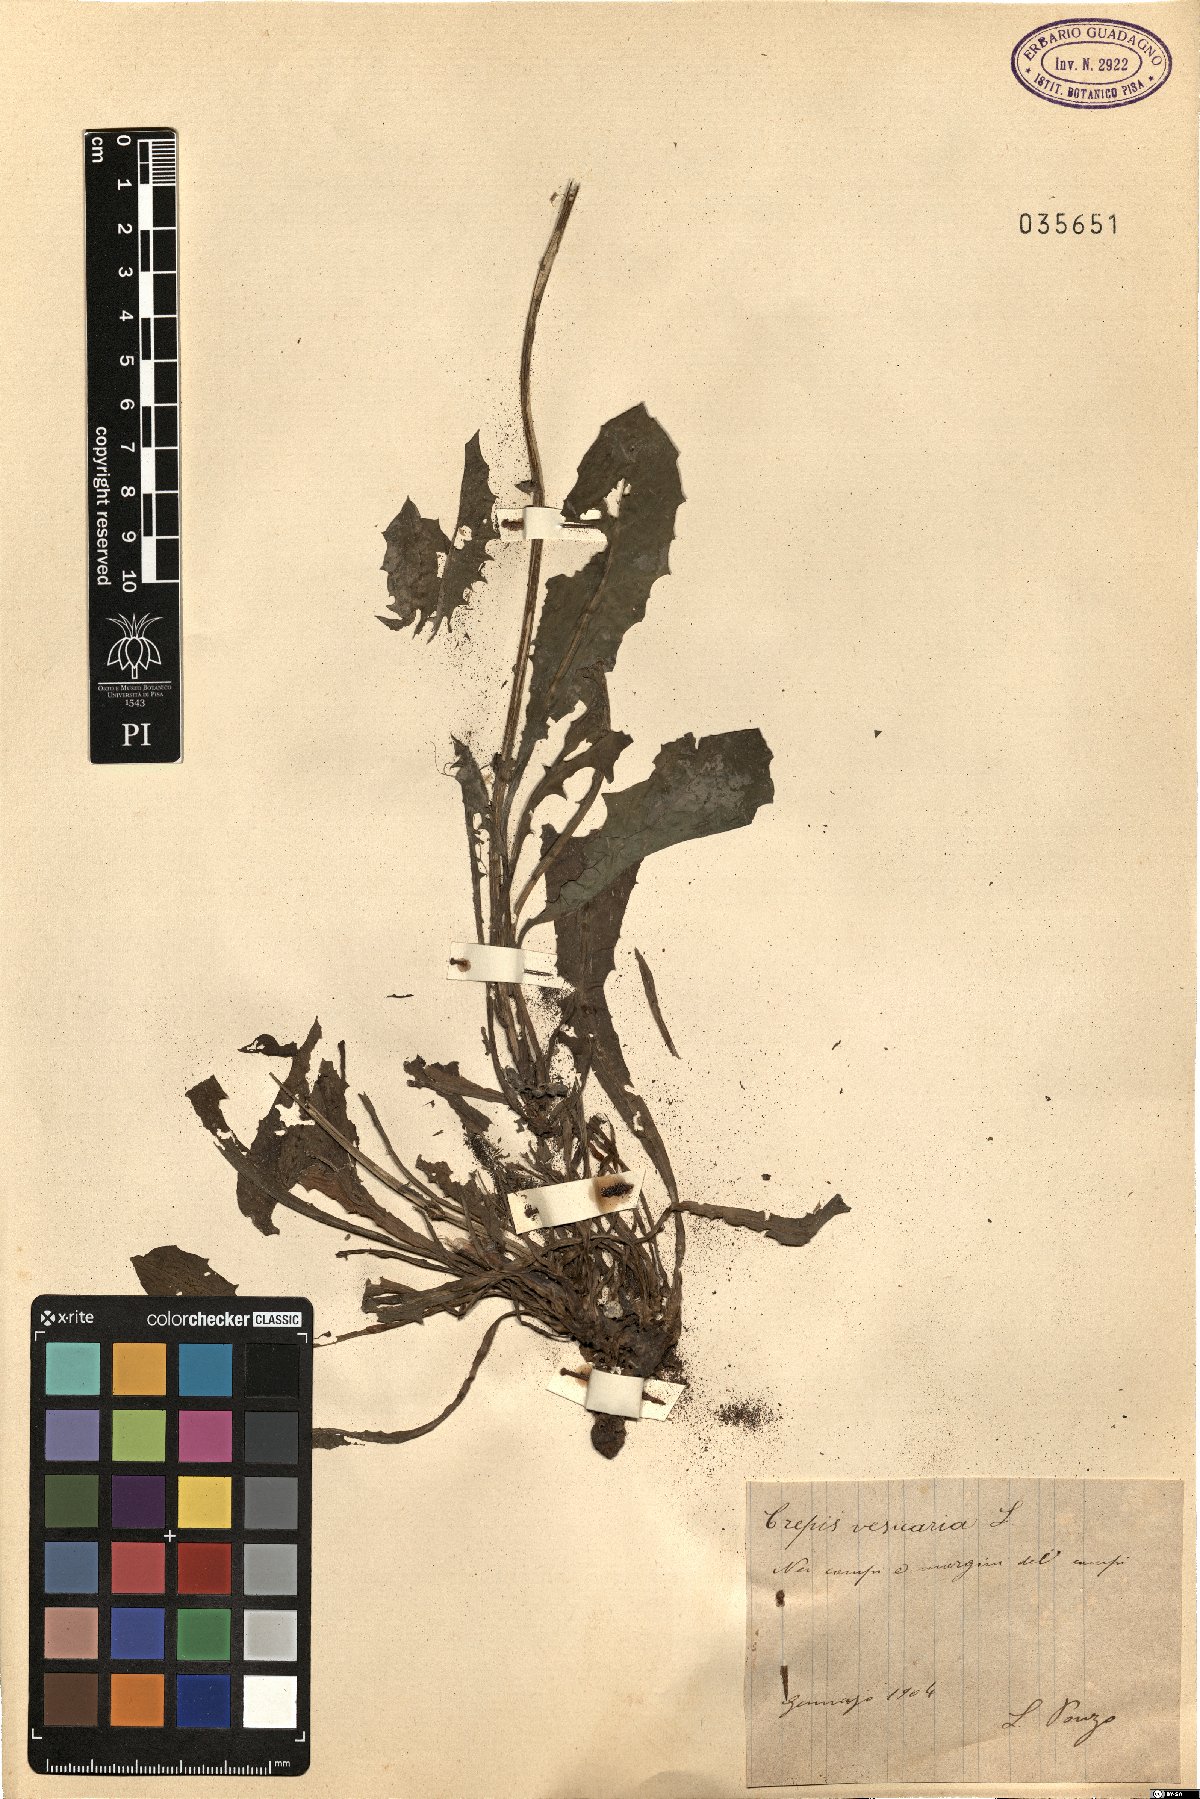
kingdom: Plantae
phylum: Tracheophyta
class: Magnoliopsida
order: Asterales
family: Asteraceae
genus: Crepis
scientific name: Crepis vesicaria
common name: Beaked hawksbeard
